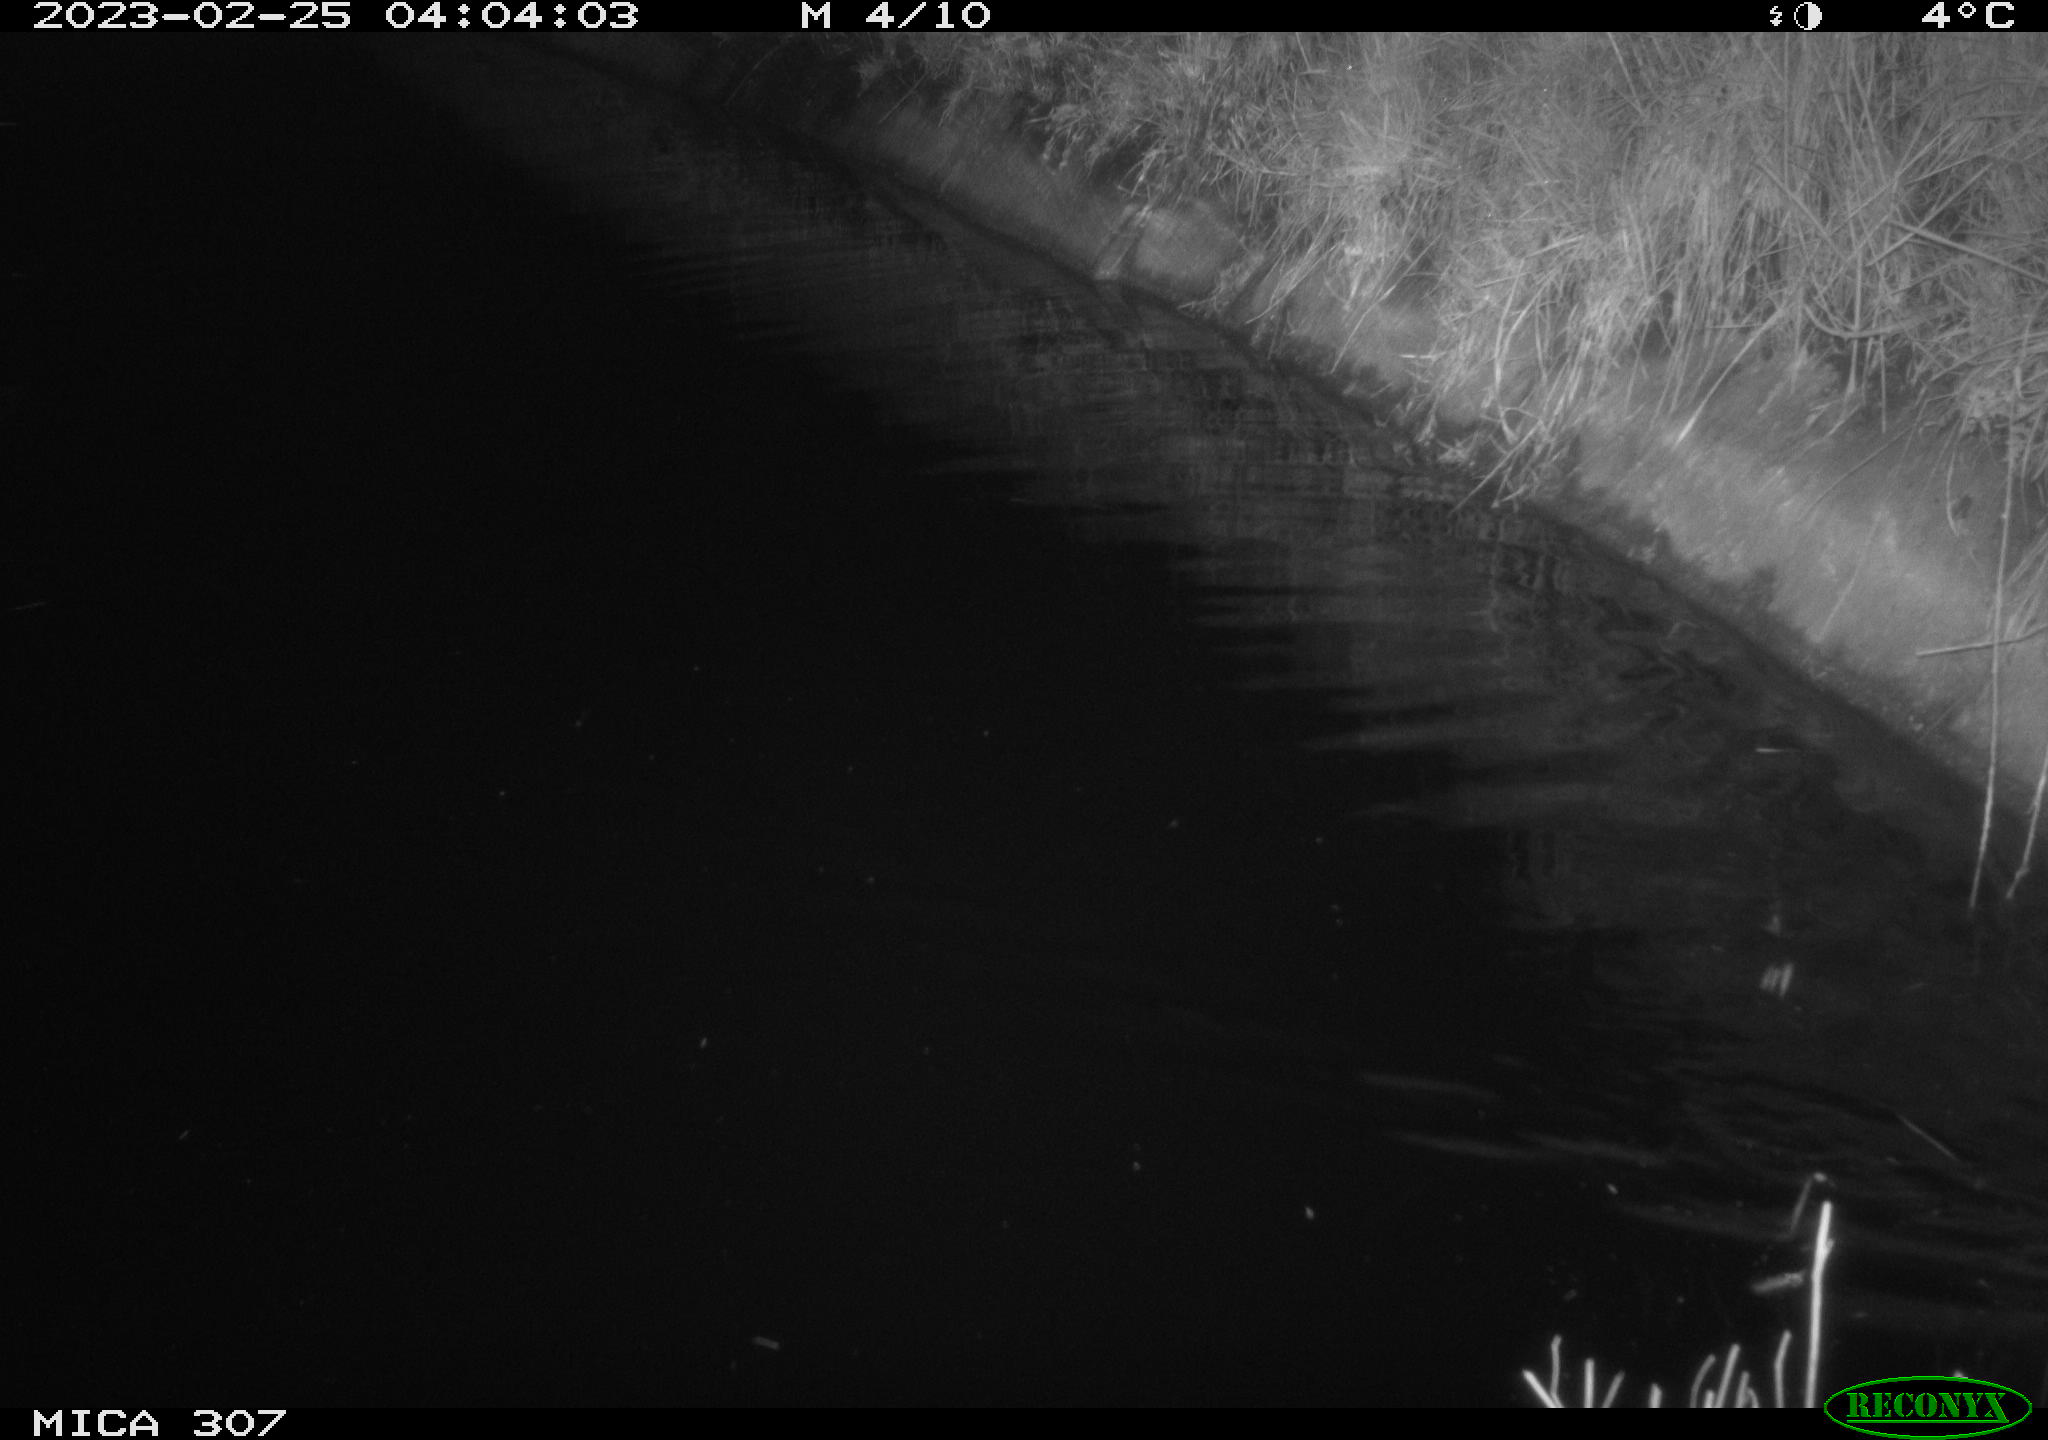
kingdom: Animalia
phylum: Chordata
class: Mammalia
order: Rodentia
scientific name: Rodentia
